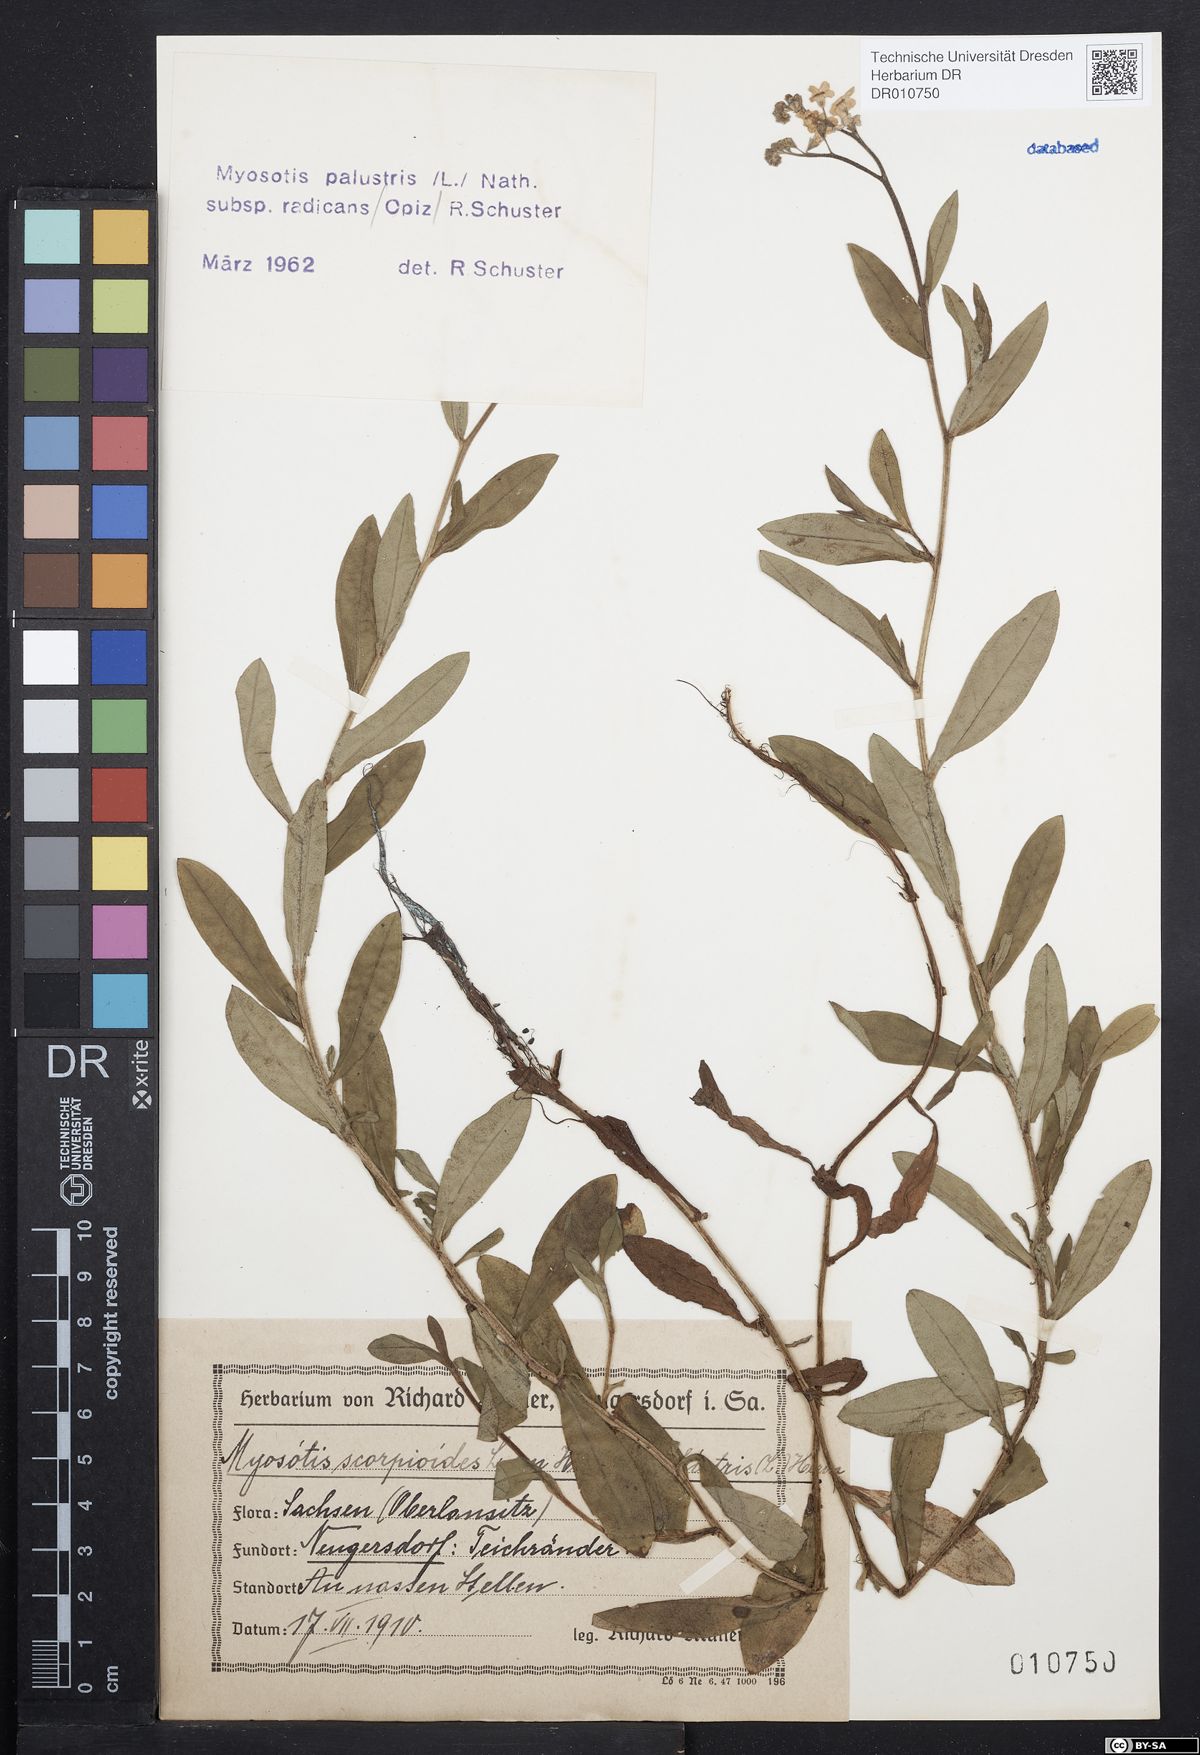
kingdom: Plantae
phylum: Tracheophyta
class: Magnoliopsida
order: Boraginales
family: Boraginaceae
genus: Myosotis
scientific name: Myosotis scorpioides
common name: Water forget-me-not
